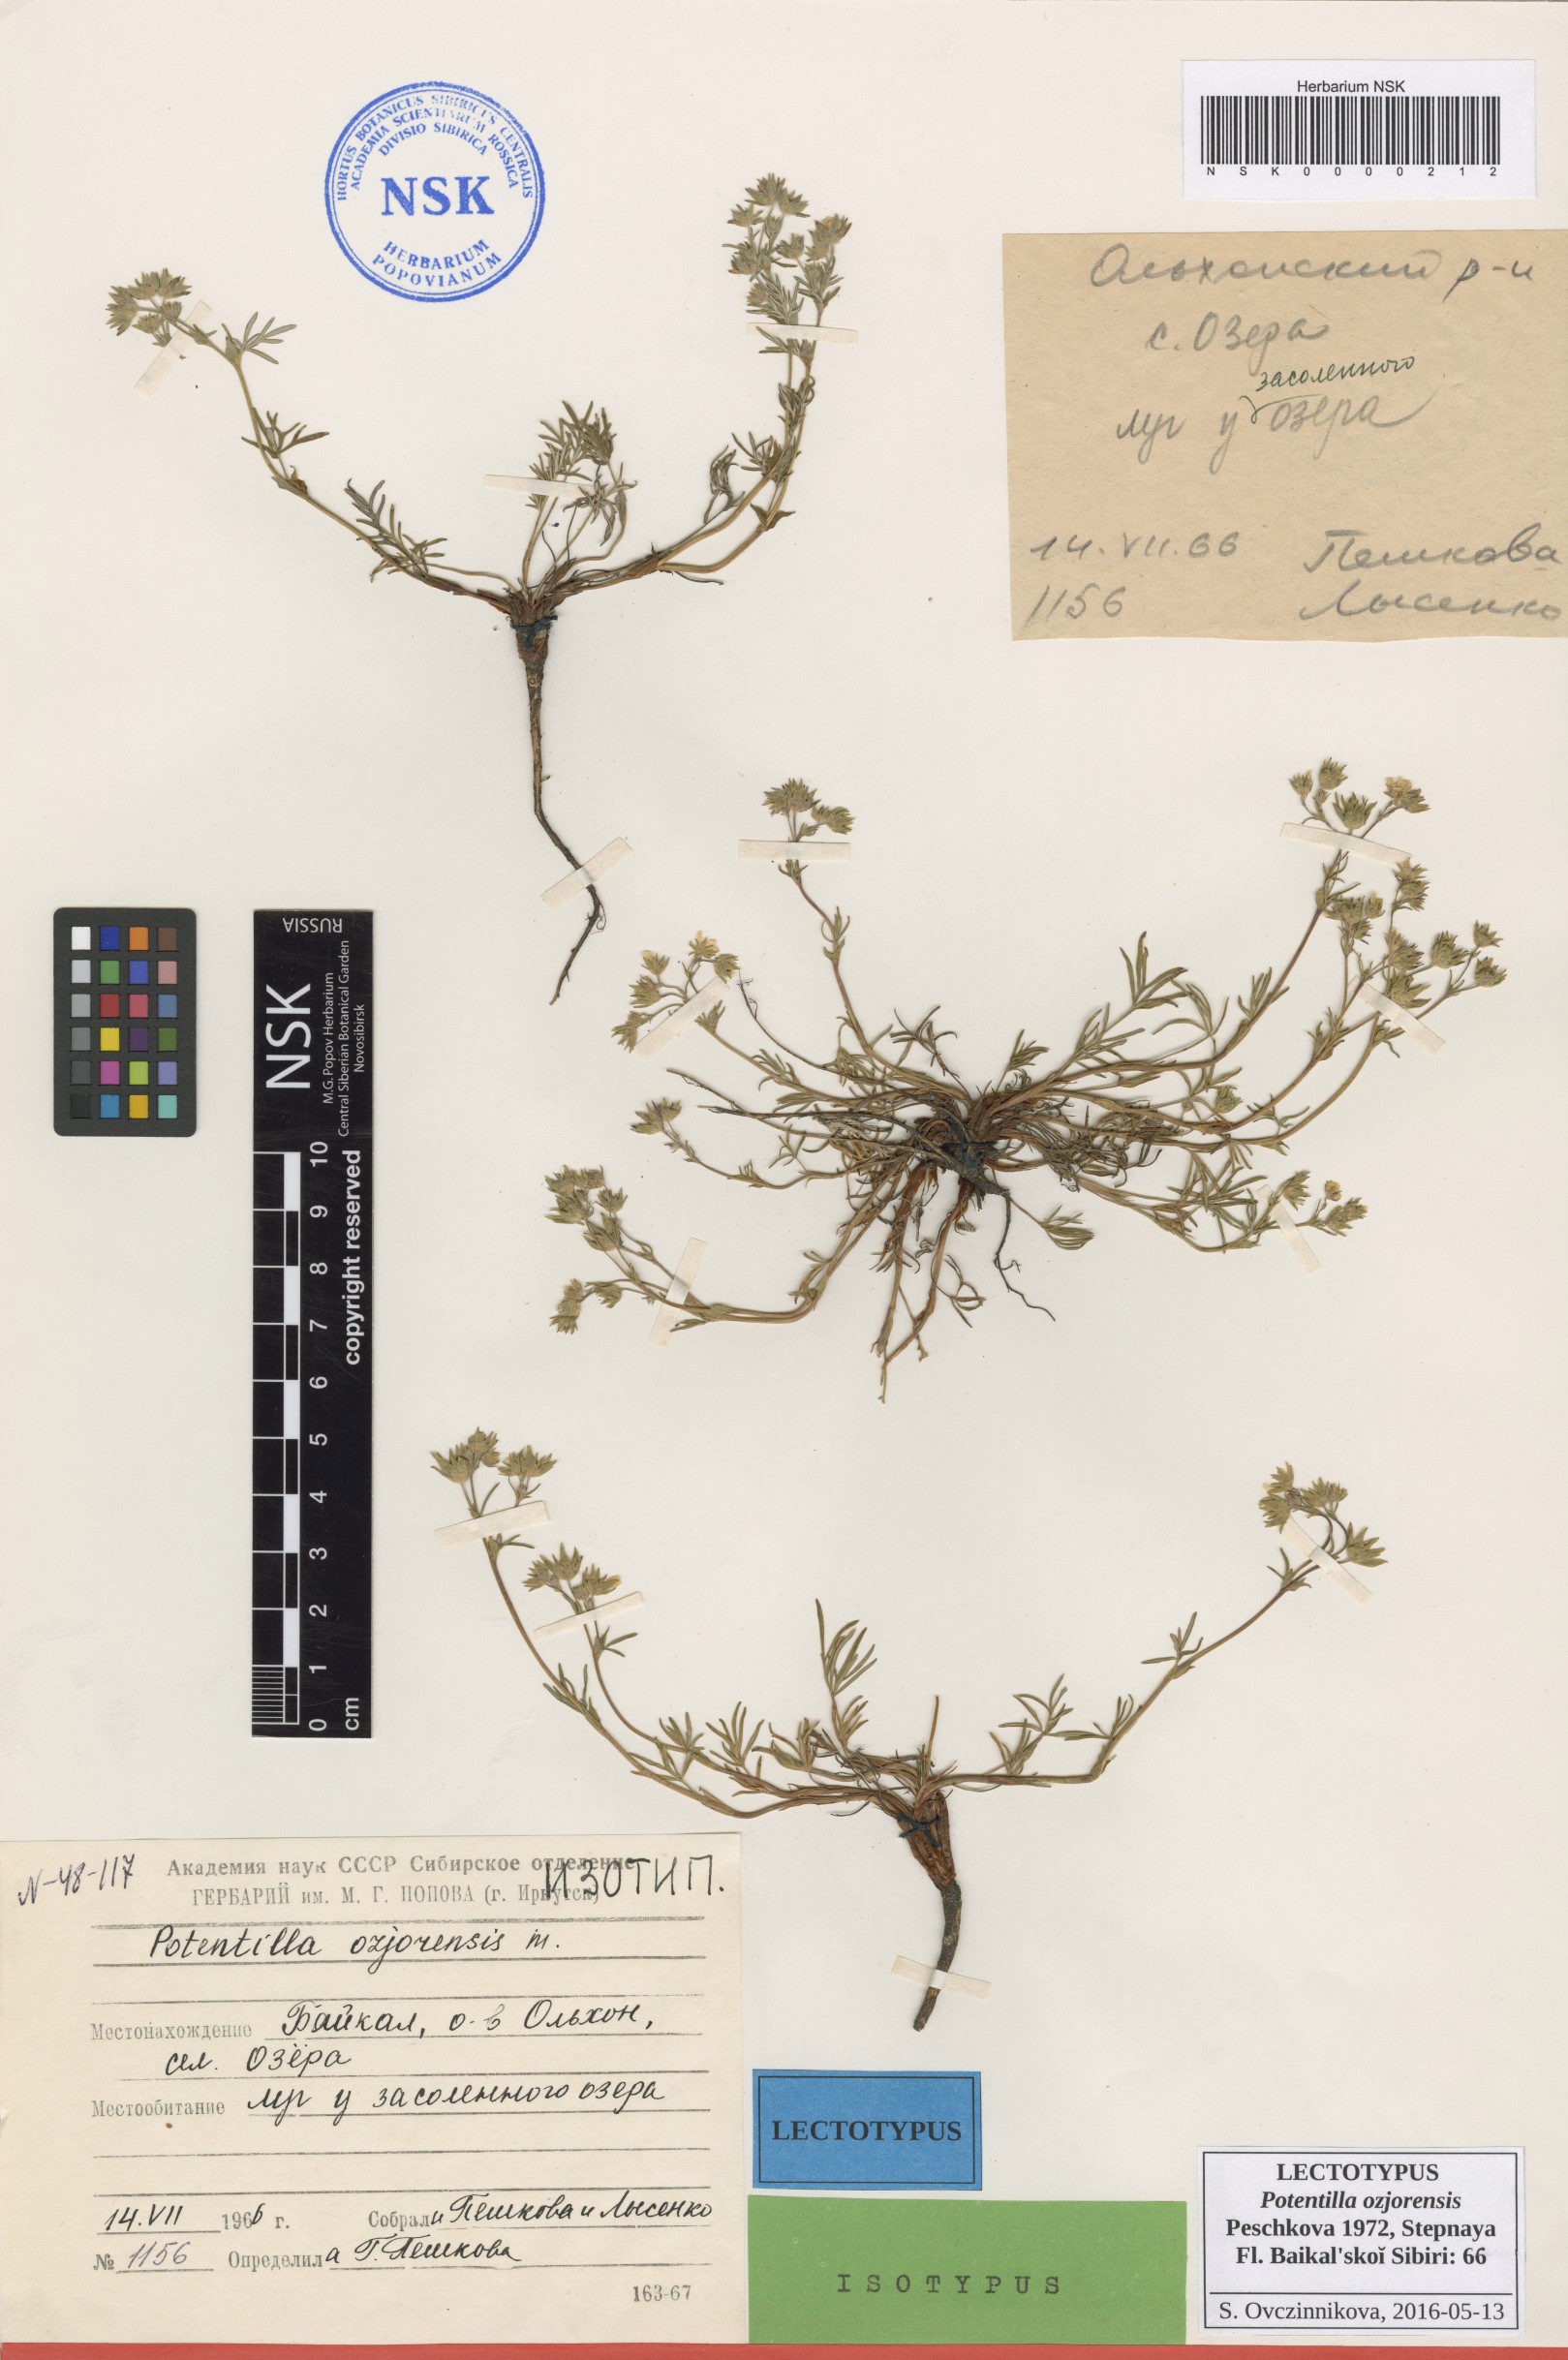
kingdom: Plantae
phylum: Tracheophyta
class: Magnoliopsida
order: Rosales
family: Rosaceae
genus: Potentilla
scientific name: Potentilla ozjorensis
